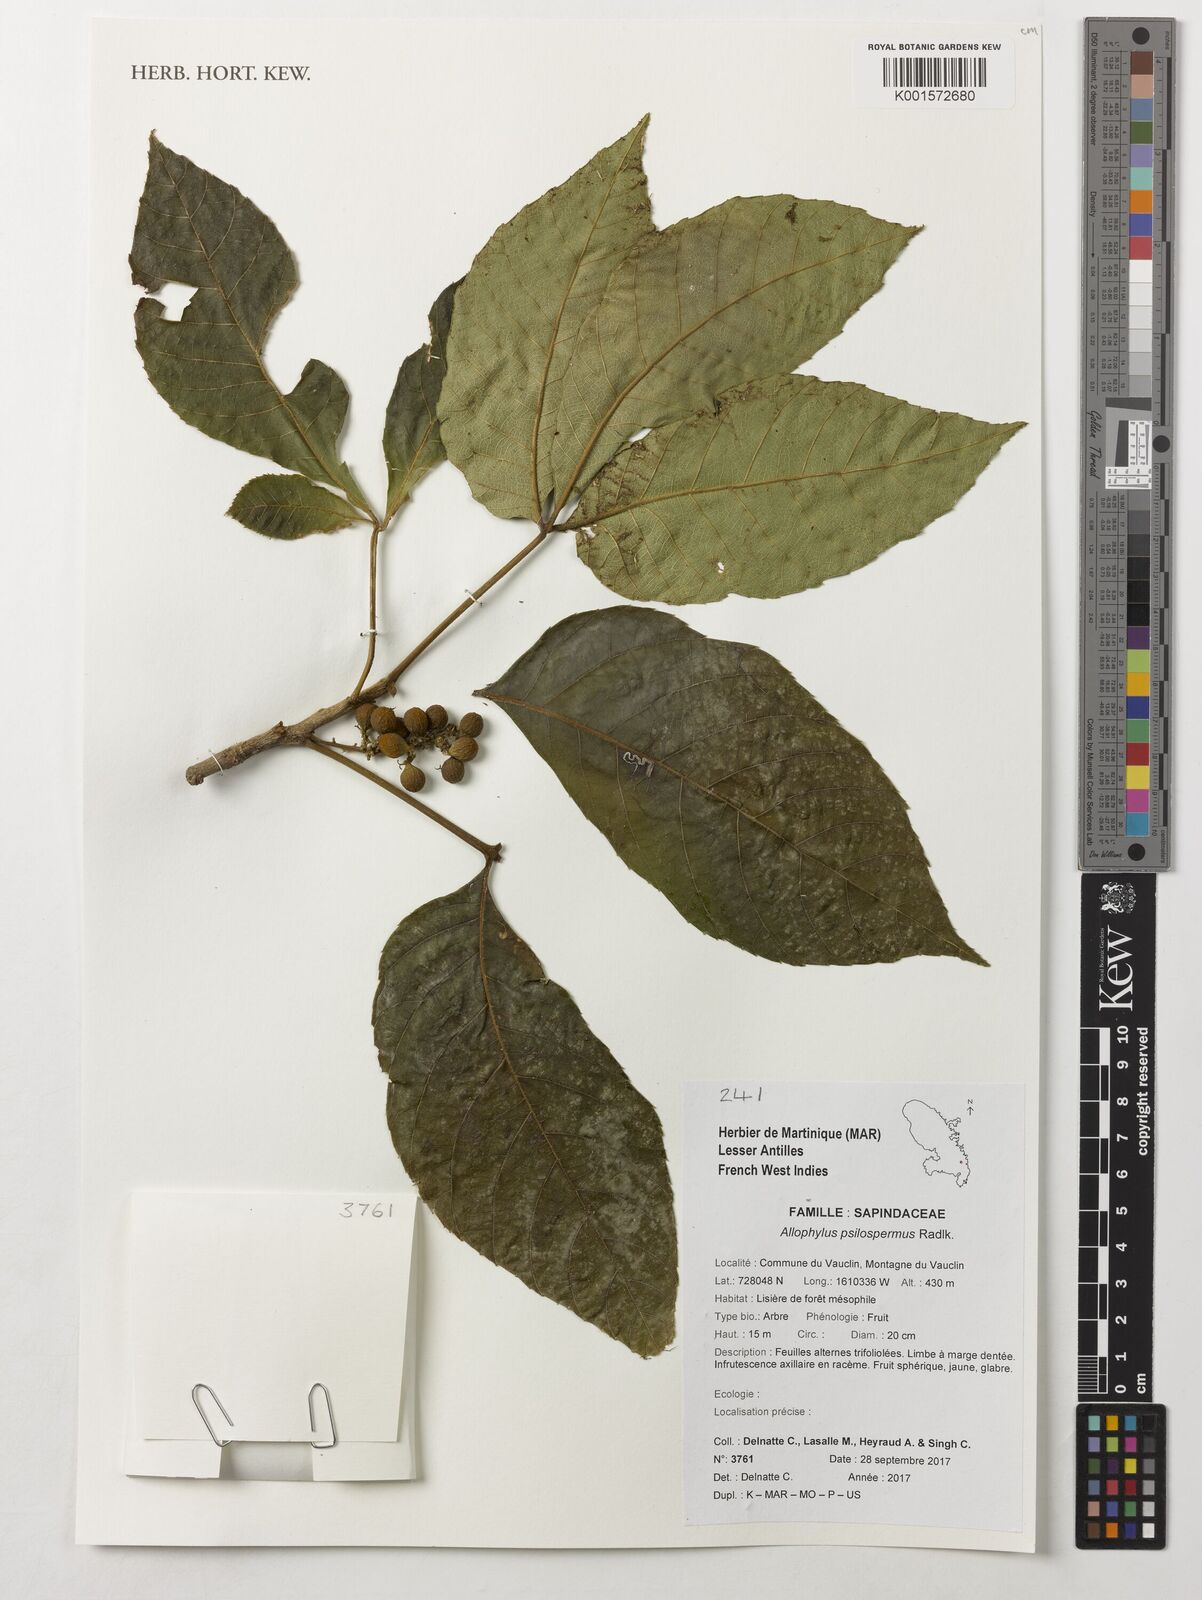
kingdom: Plantae
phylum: Tracheophyta
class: Magnoliopsida
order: Sapindales
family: Sapindaceae
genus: Allophylus
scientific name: Allophylus psilospermus
